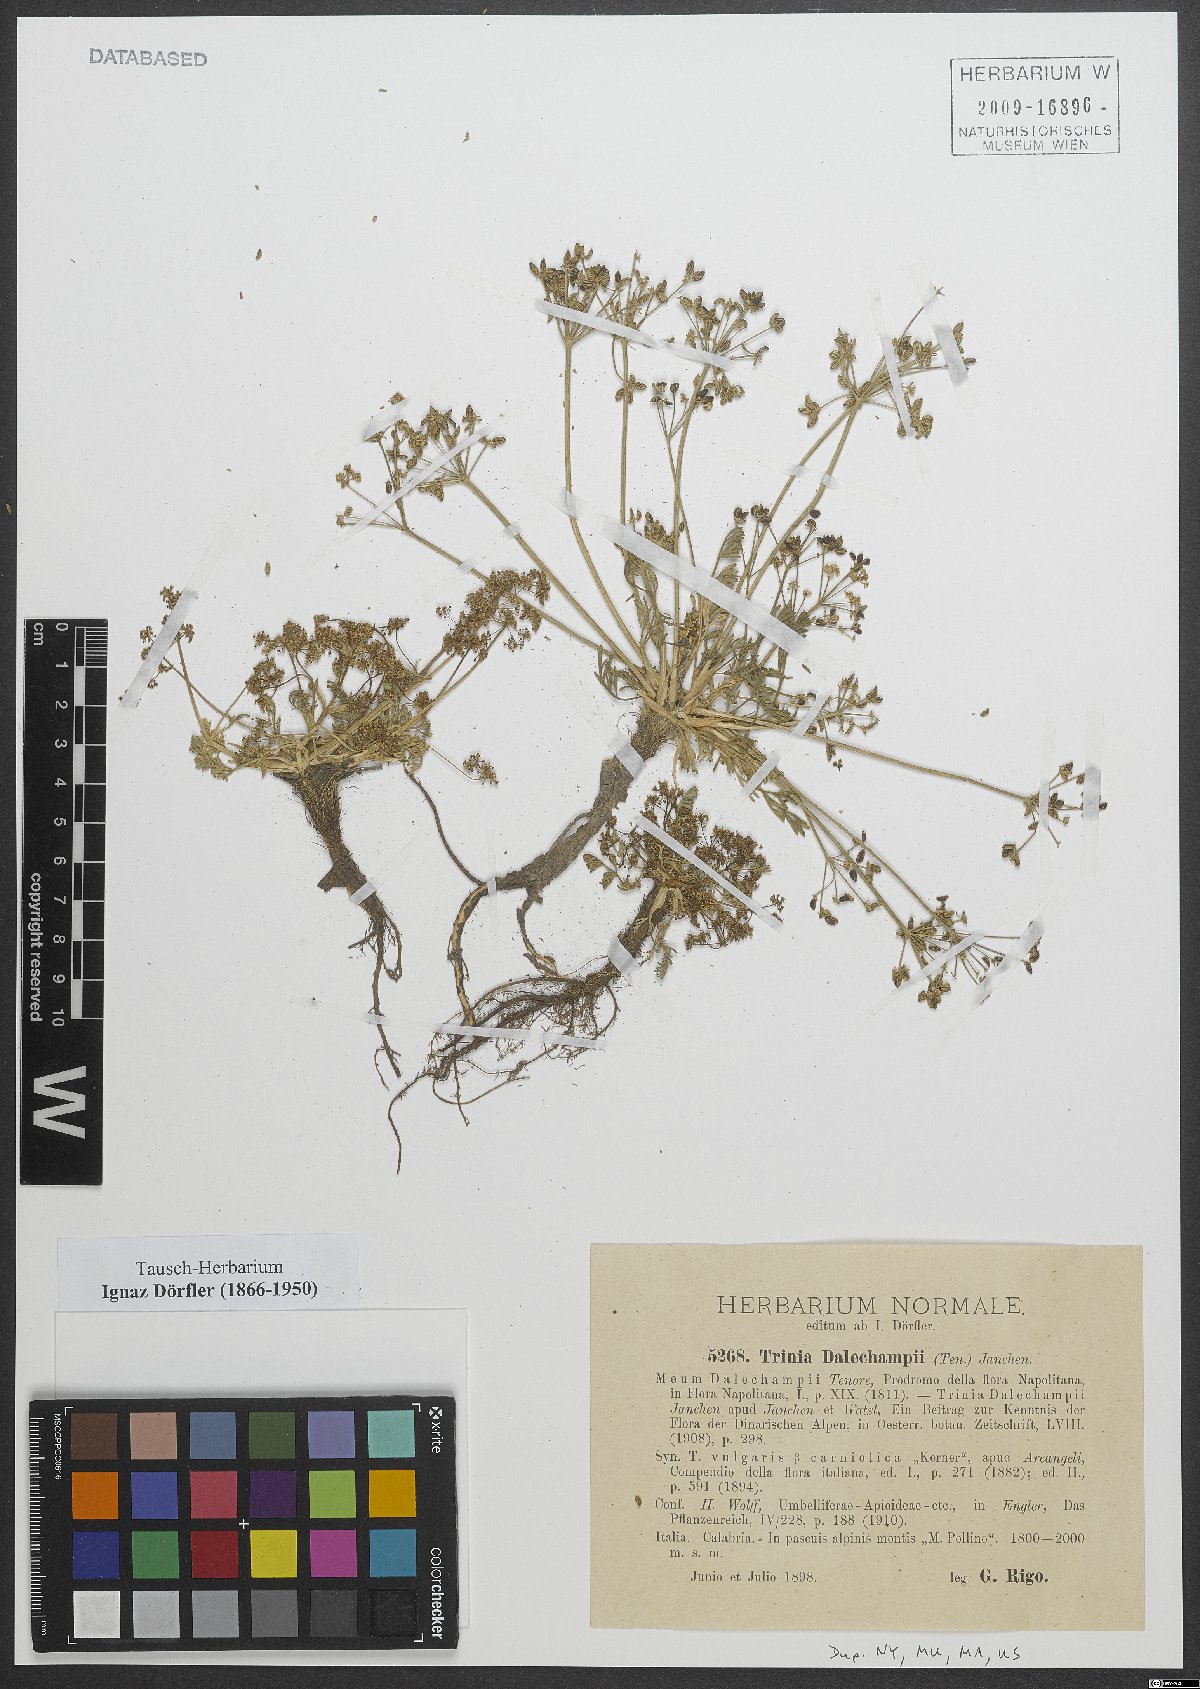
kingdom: Plantae
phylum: Tracheophyta
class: Magnoliopsida
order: Apiales
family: Apiaceae
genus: Trinia
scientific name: Trinia dalechampii
